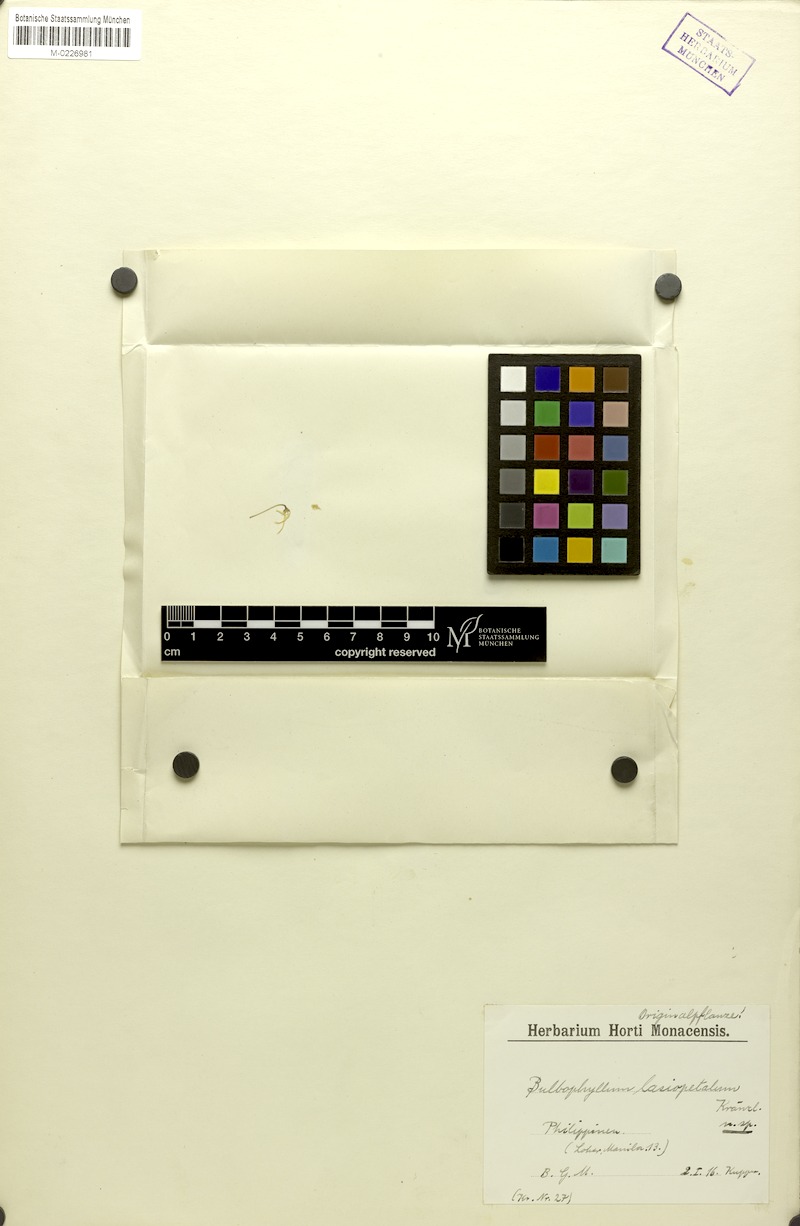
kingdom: Plantae
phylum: Tracheophyta
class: Liliopsida
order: Asparagales
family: Orchidaceae
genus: Bulbophyllum
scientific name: Bulbophyllum lasiopetalum
